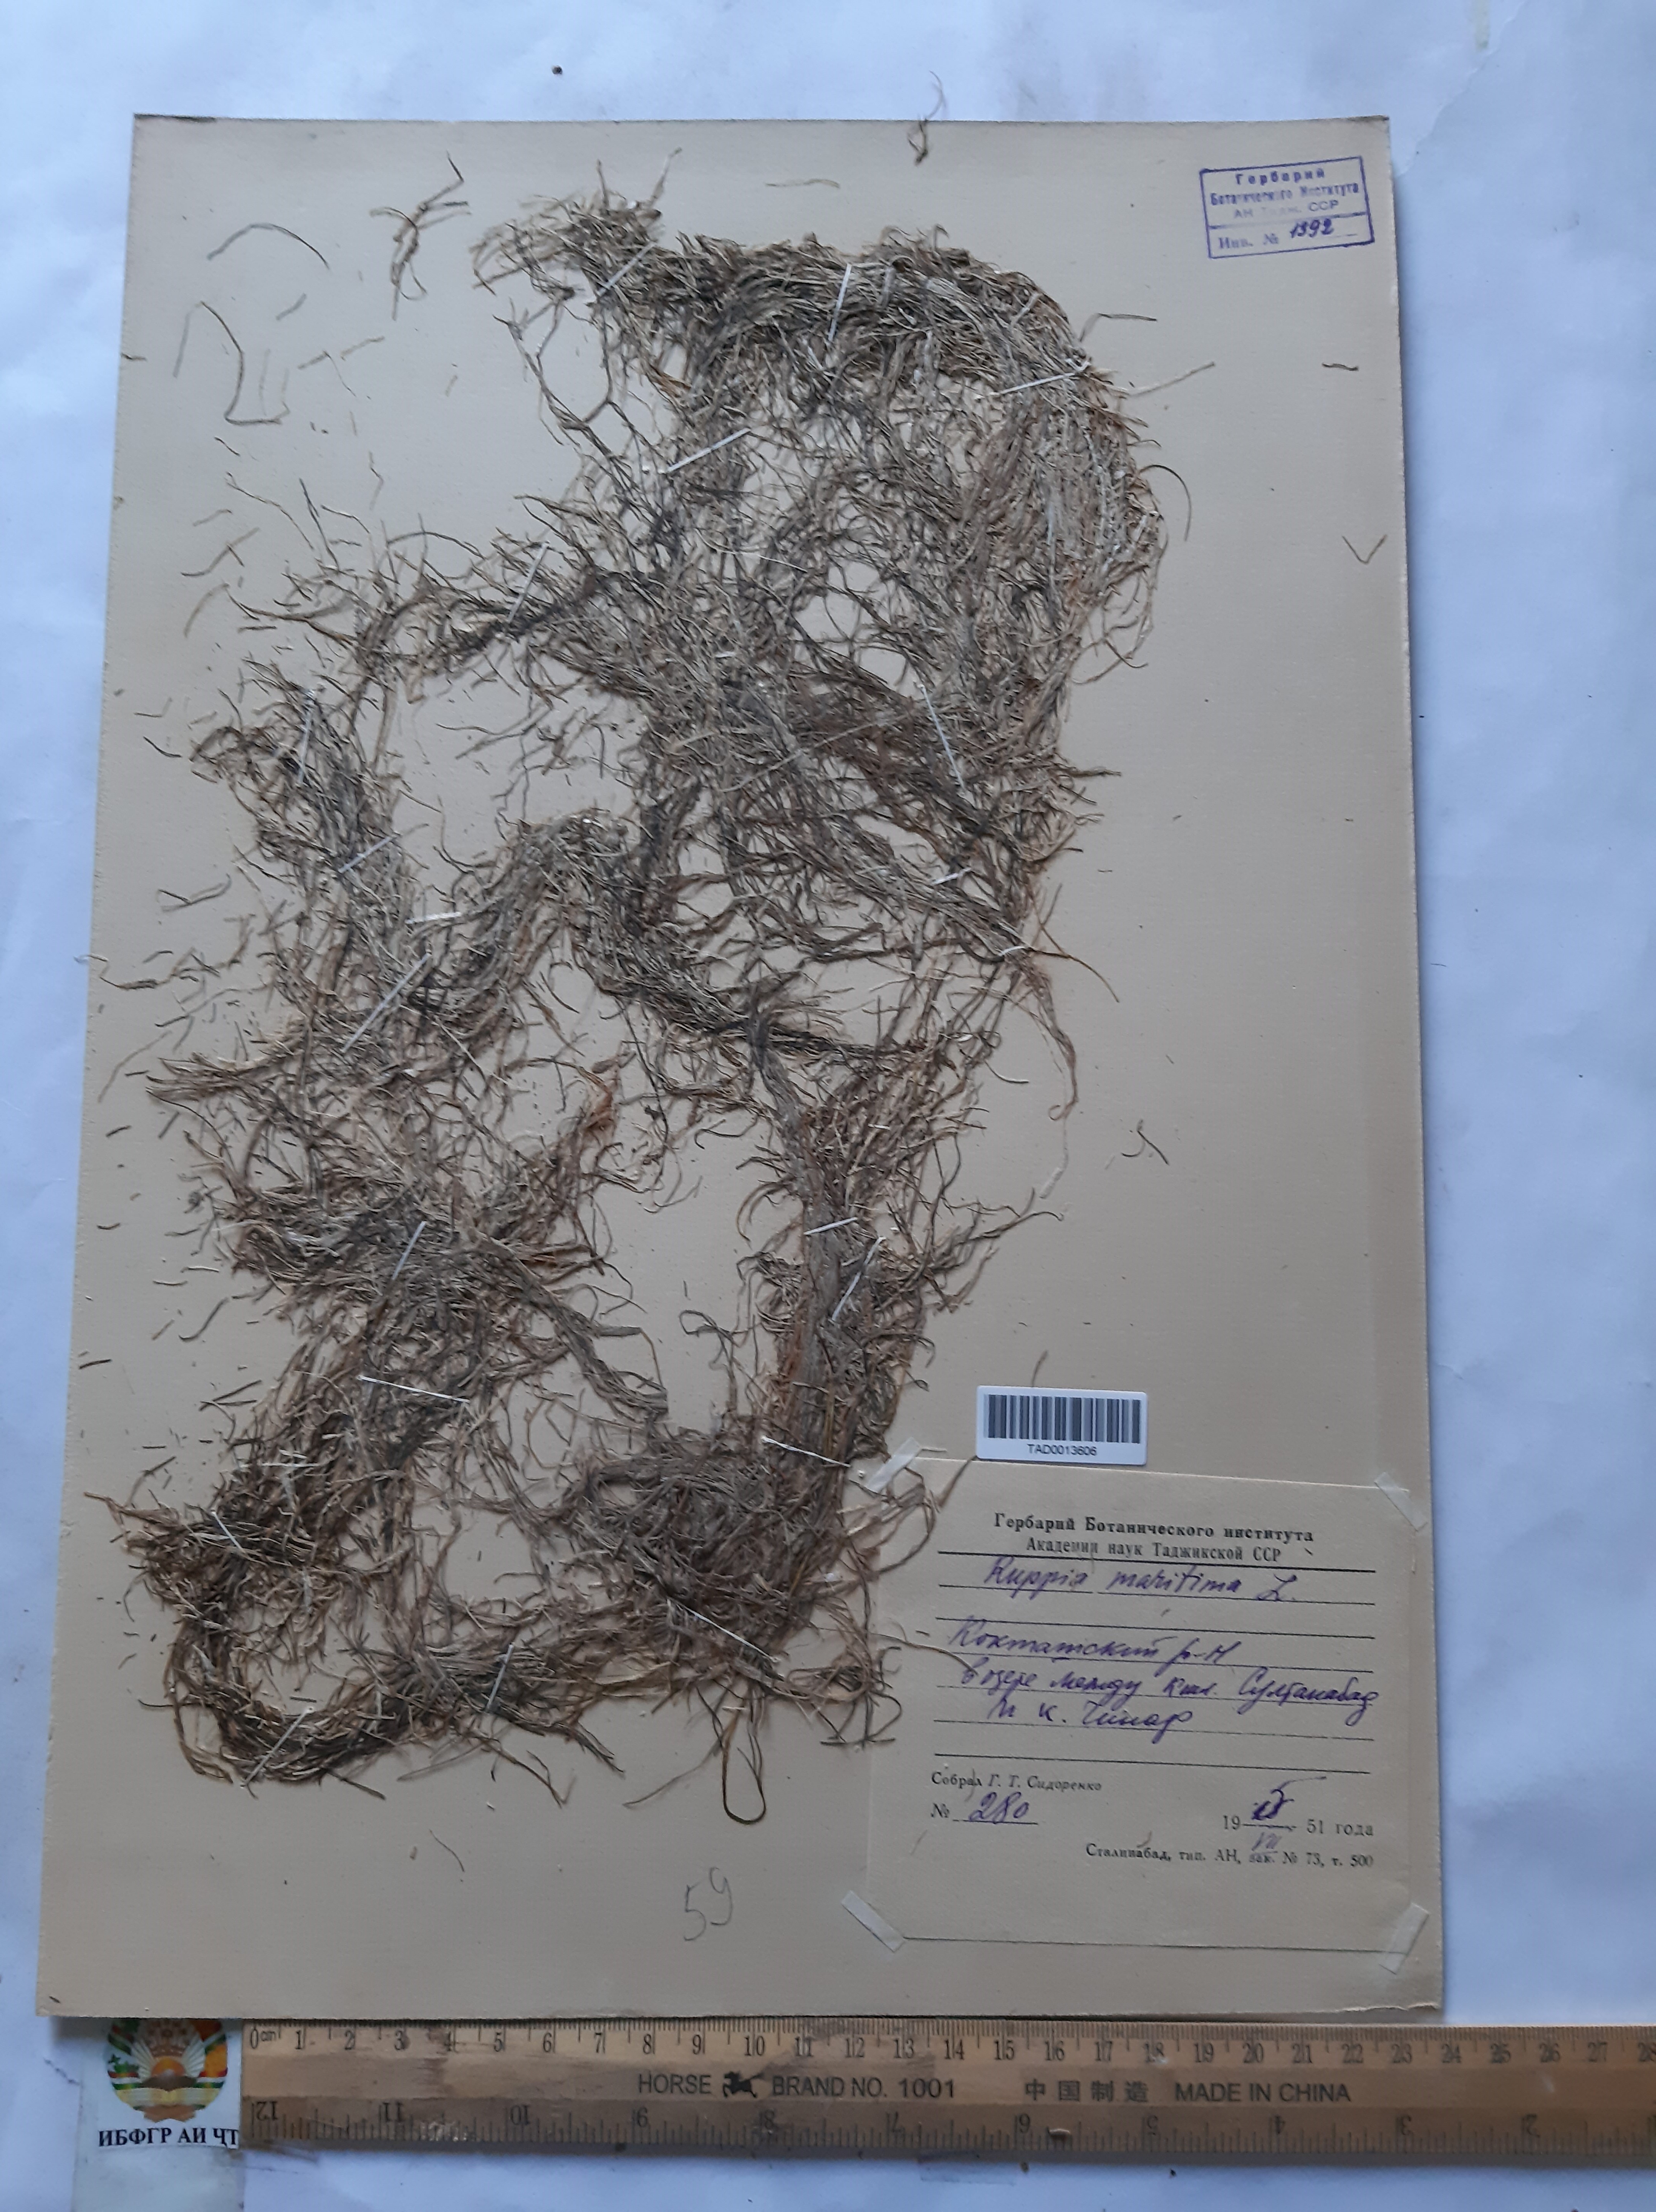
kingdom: Plantae
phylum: Tracheophyta
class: Liliopsida
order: Alismatales
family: Ruppiaceae
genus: Ruppia
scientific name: Ruppia maritima
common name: Beaked tasselweed
